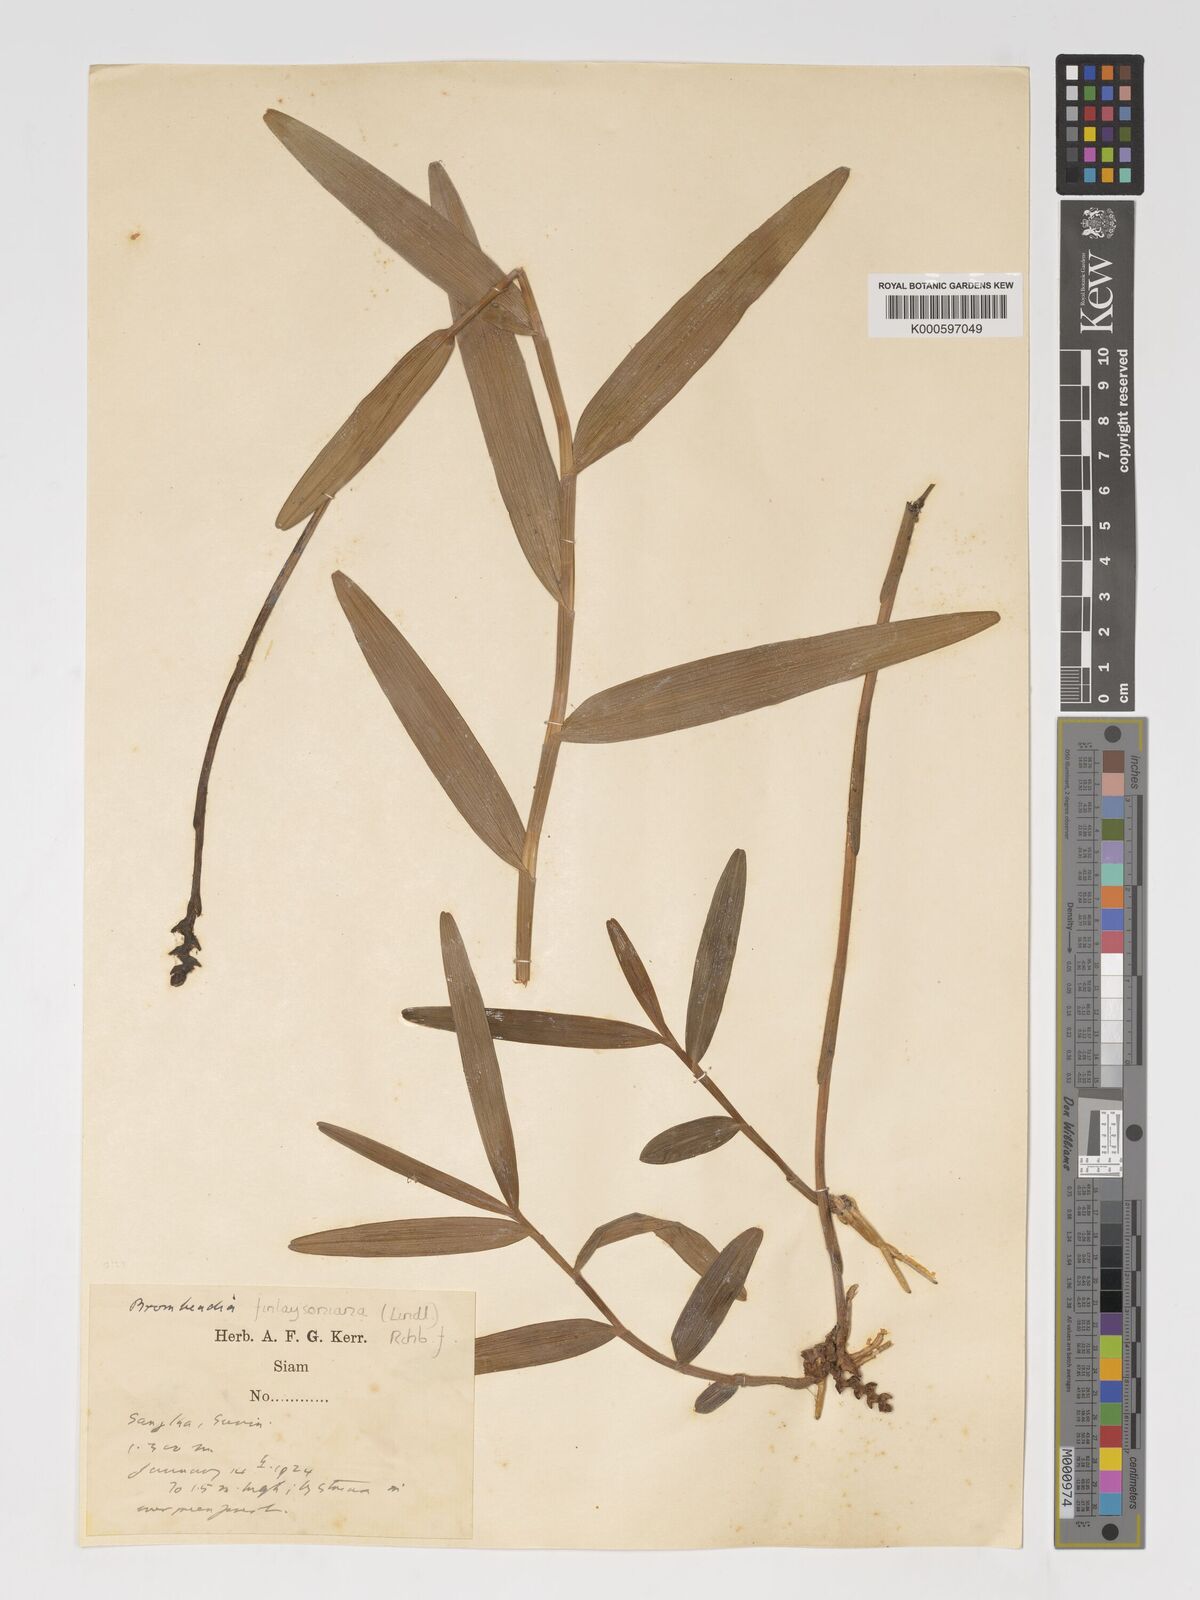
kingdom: Plantae
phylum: Tracheophyta
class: Liliopsida
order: Asparagales
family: Orchidaceae
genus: Bromheadia
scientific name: Bromheadia
